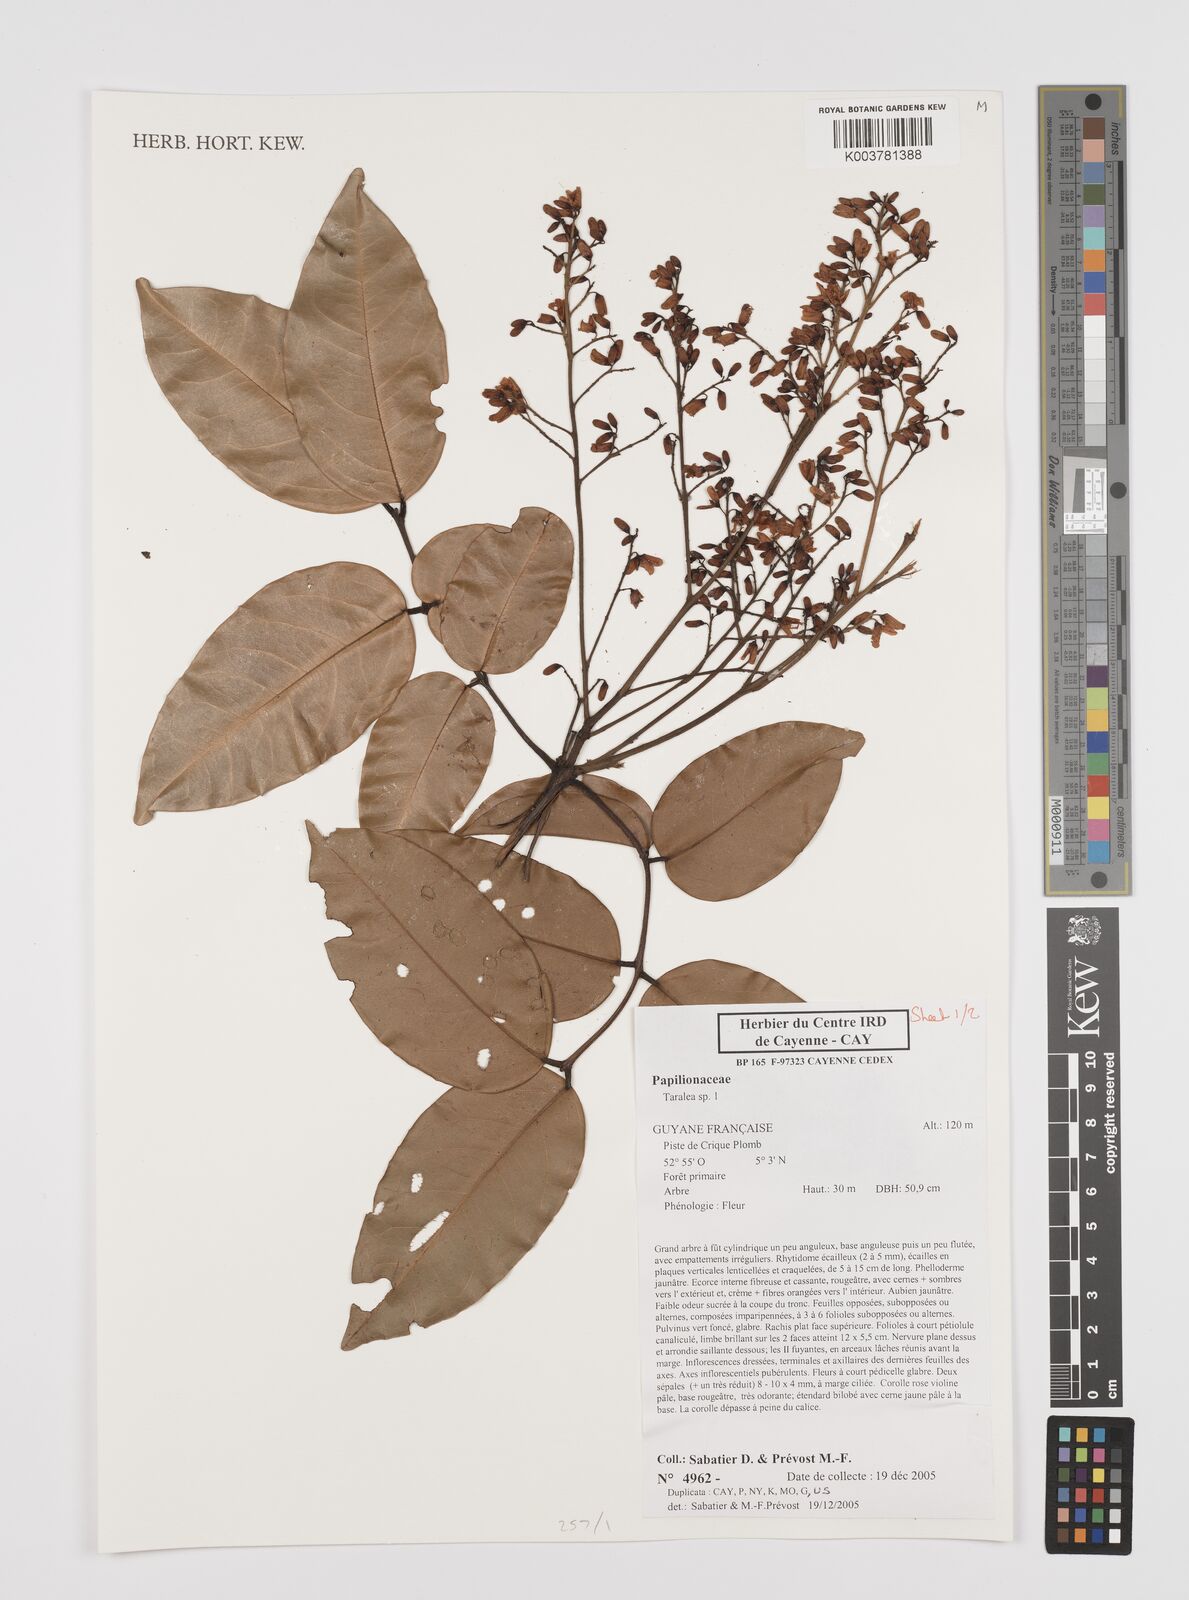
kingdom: Plantae
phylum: Tracheophyta
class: Magnoliopsida
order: Fabales
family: Fabaceae
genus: Taralea
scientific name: Taralea
